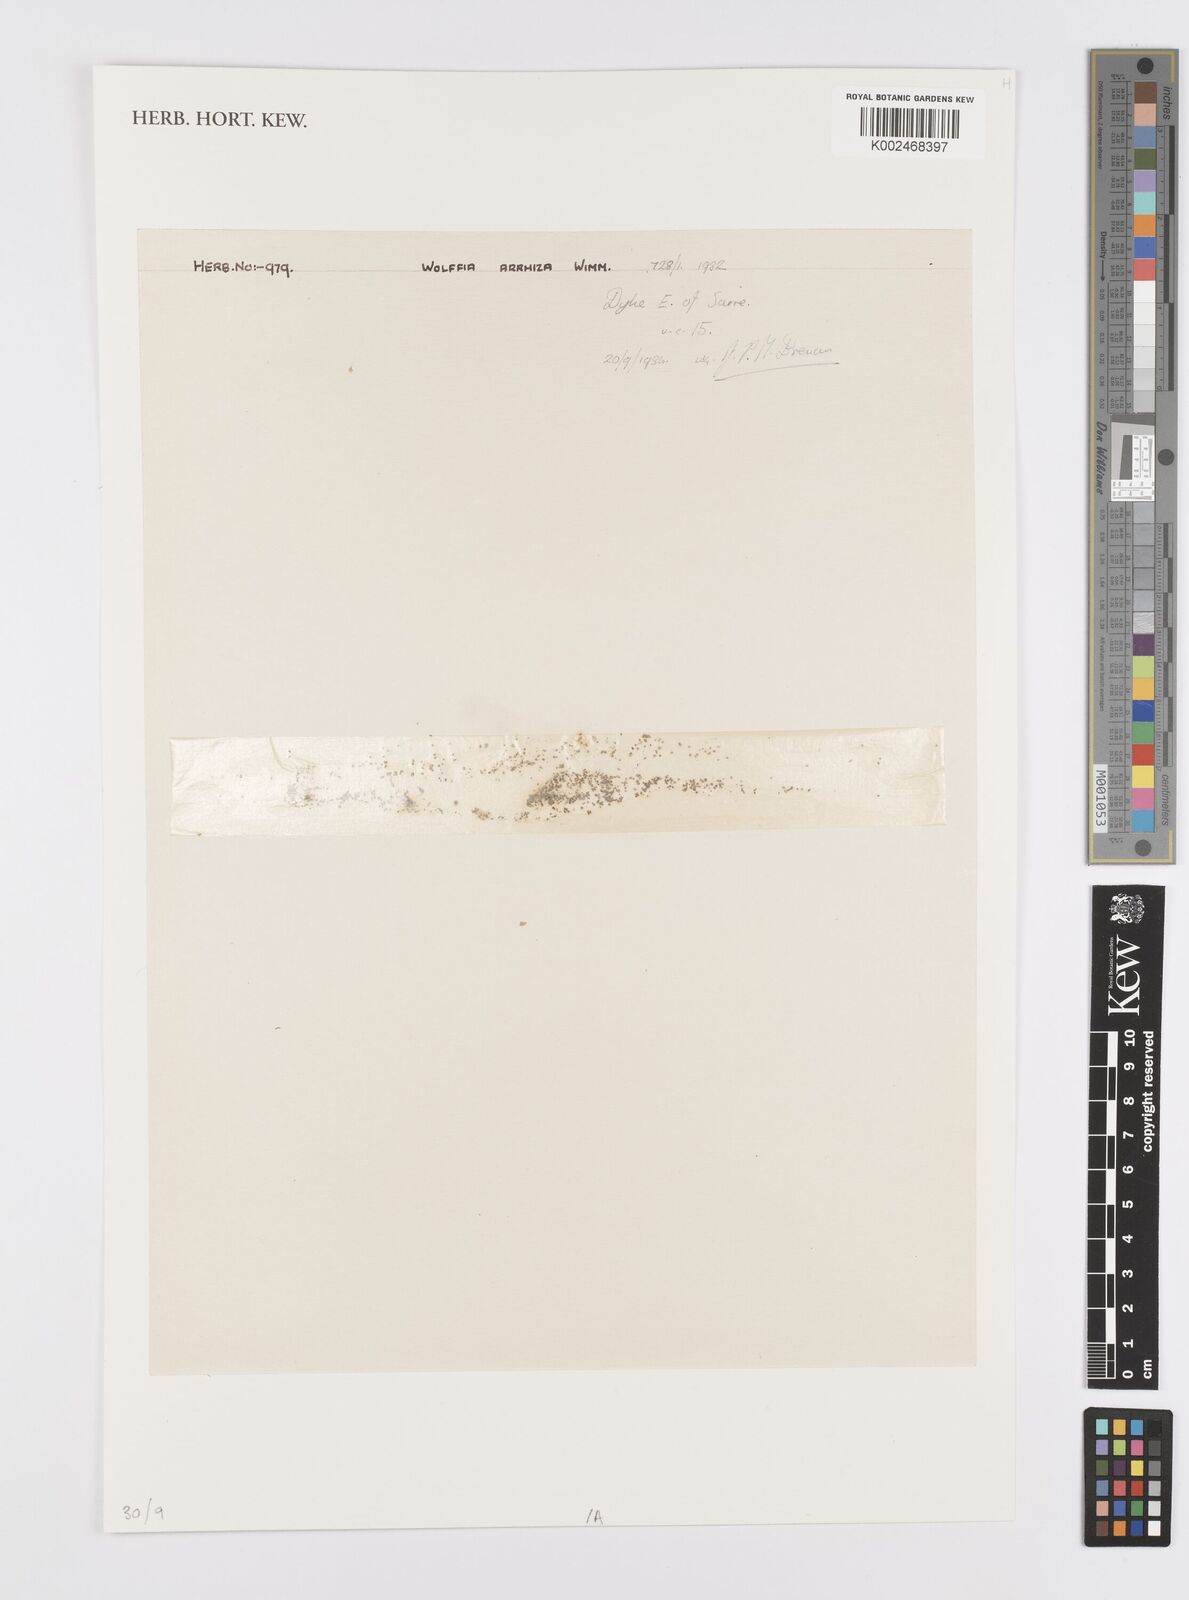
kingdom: Plantae
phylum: Tracheophyta
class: Liliopsida
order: Alismatales
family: Araceae
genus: Wolffia
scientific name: Wolffia arrhiza
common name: Rootless duckweed
